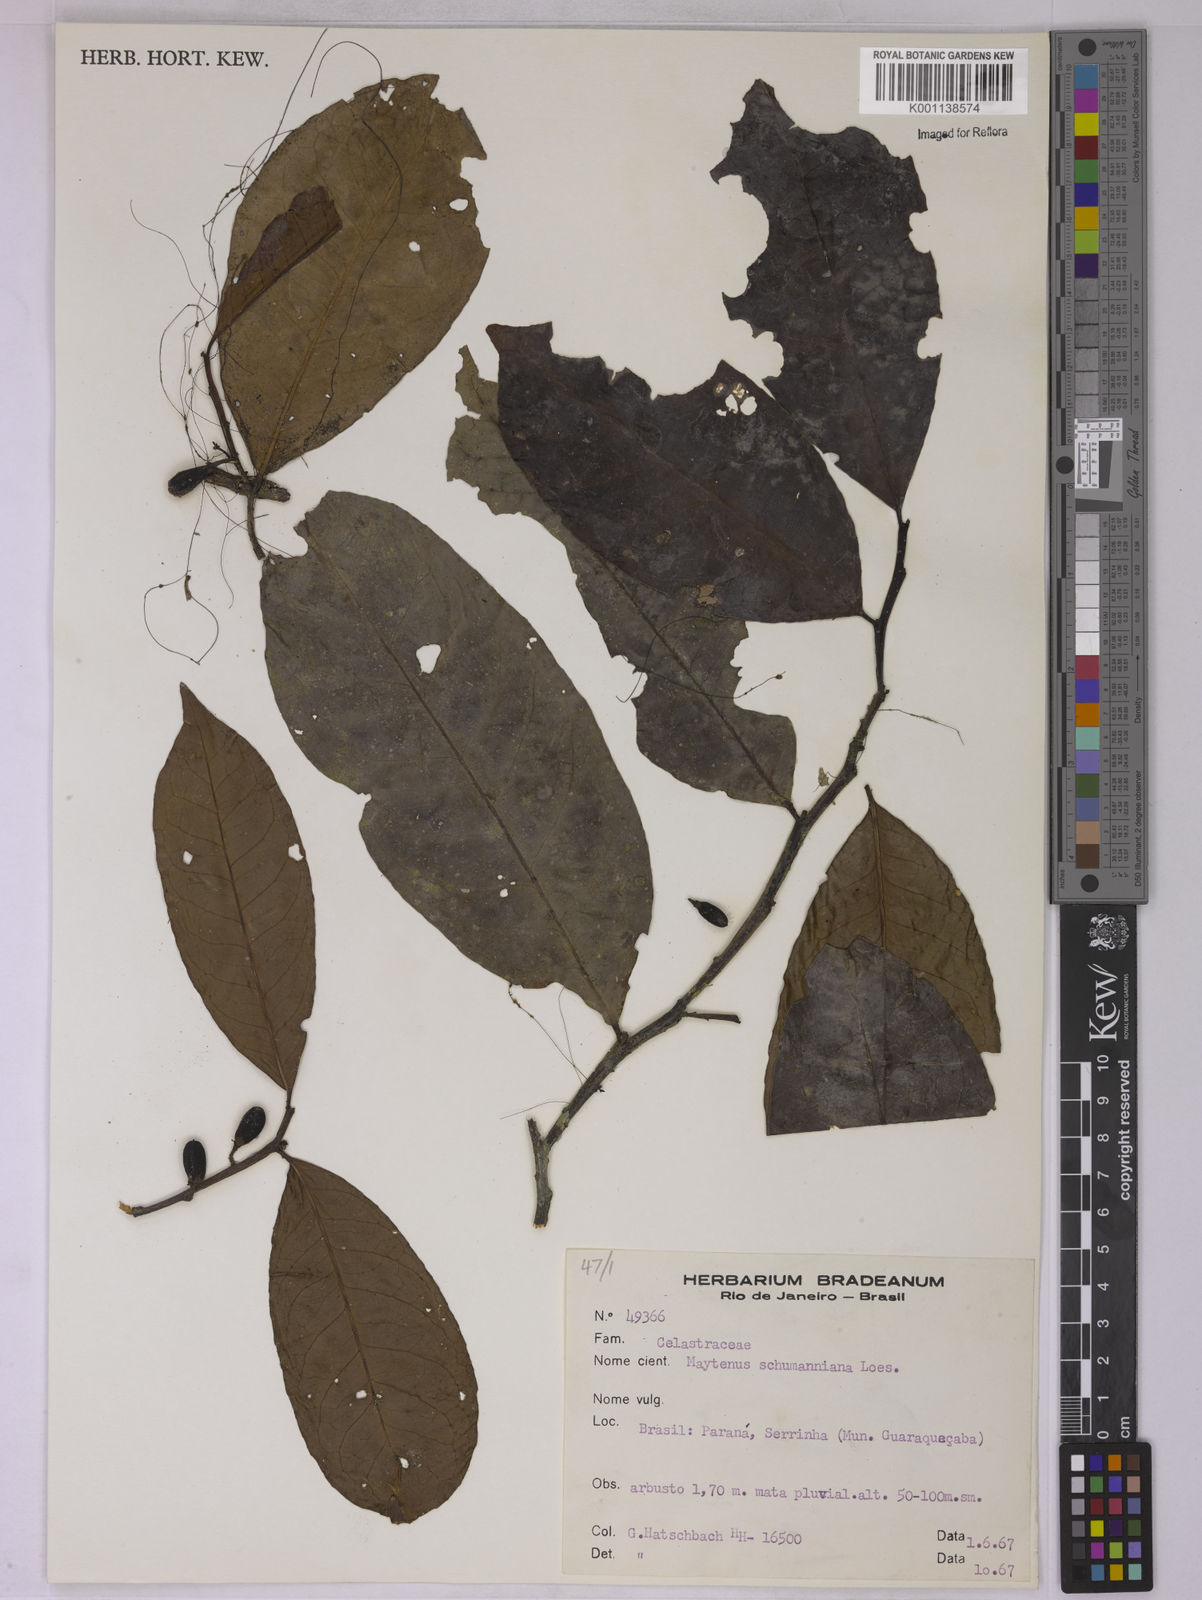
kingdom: Plantae
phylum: Tracheophyta
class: Magnoliopsida
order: Celastrales
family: Celastraceae
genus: Monteverdia
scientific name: Monteverdia schumanniana
